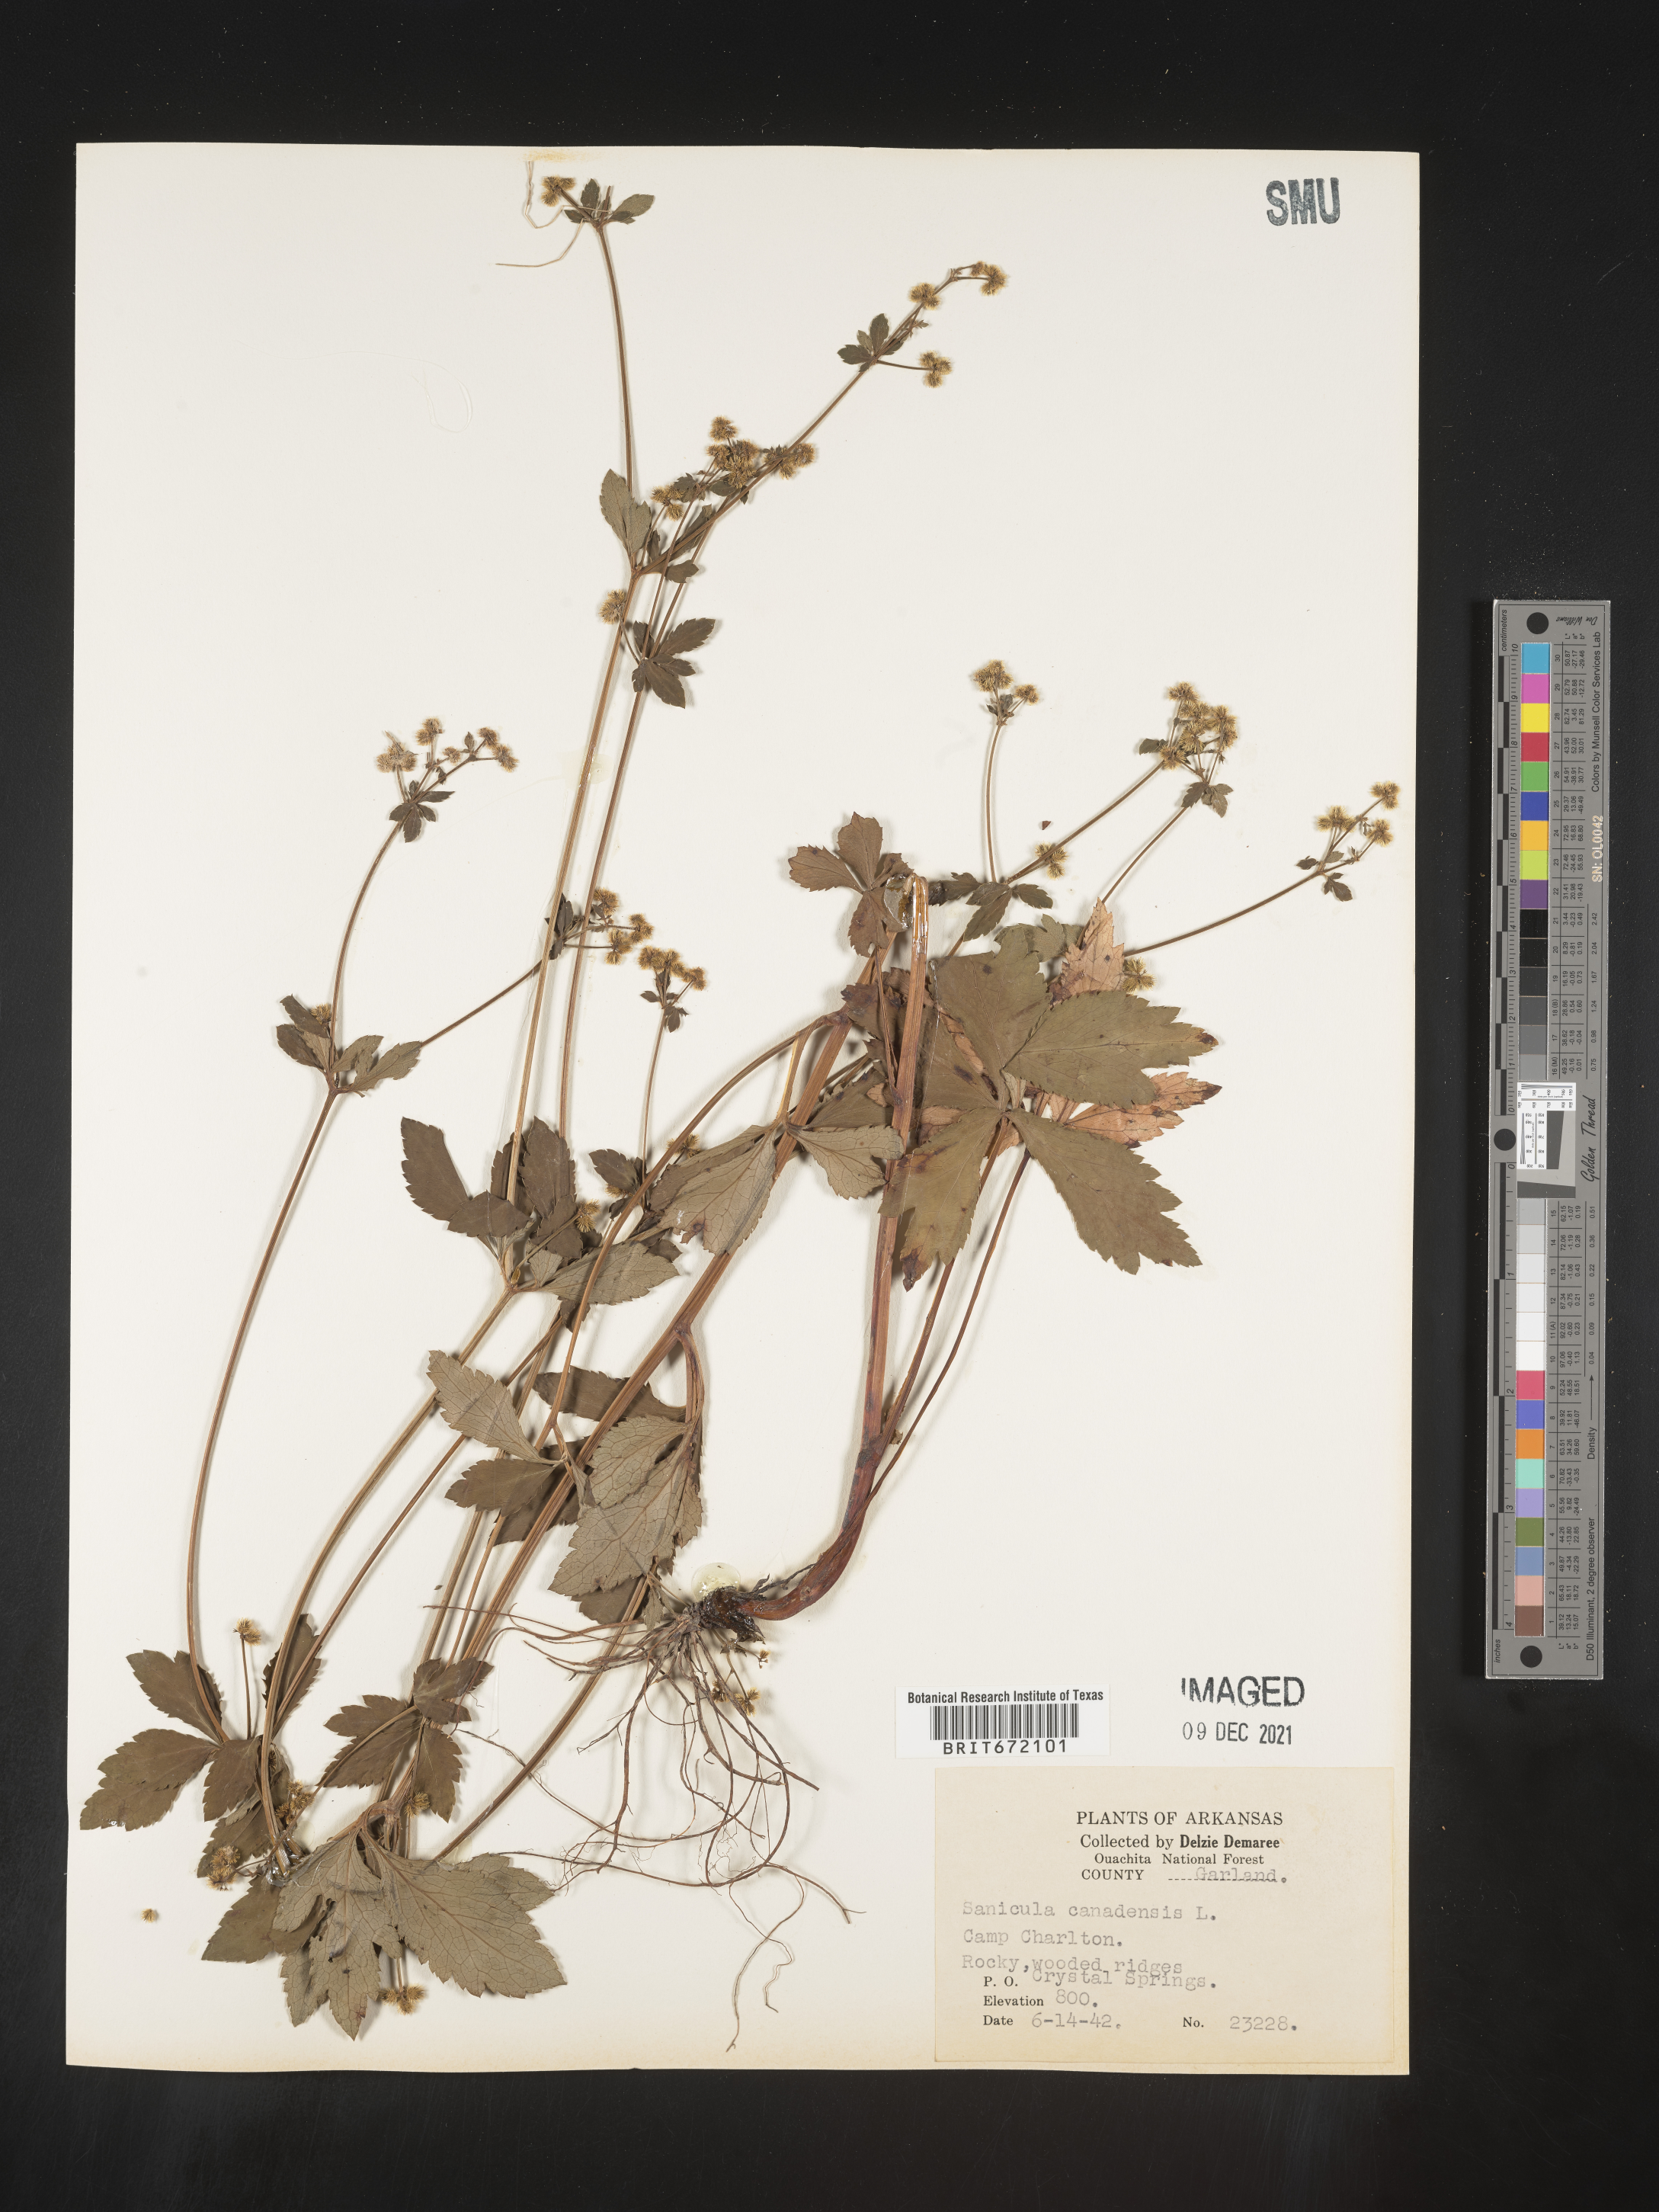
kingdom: Plantae
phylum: Tracheophyta
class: Magnoliopsida
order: Apiales
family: Apiaceae
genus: Sanicula
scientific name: Sanicula canadensis
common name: Canada sanicle
